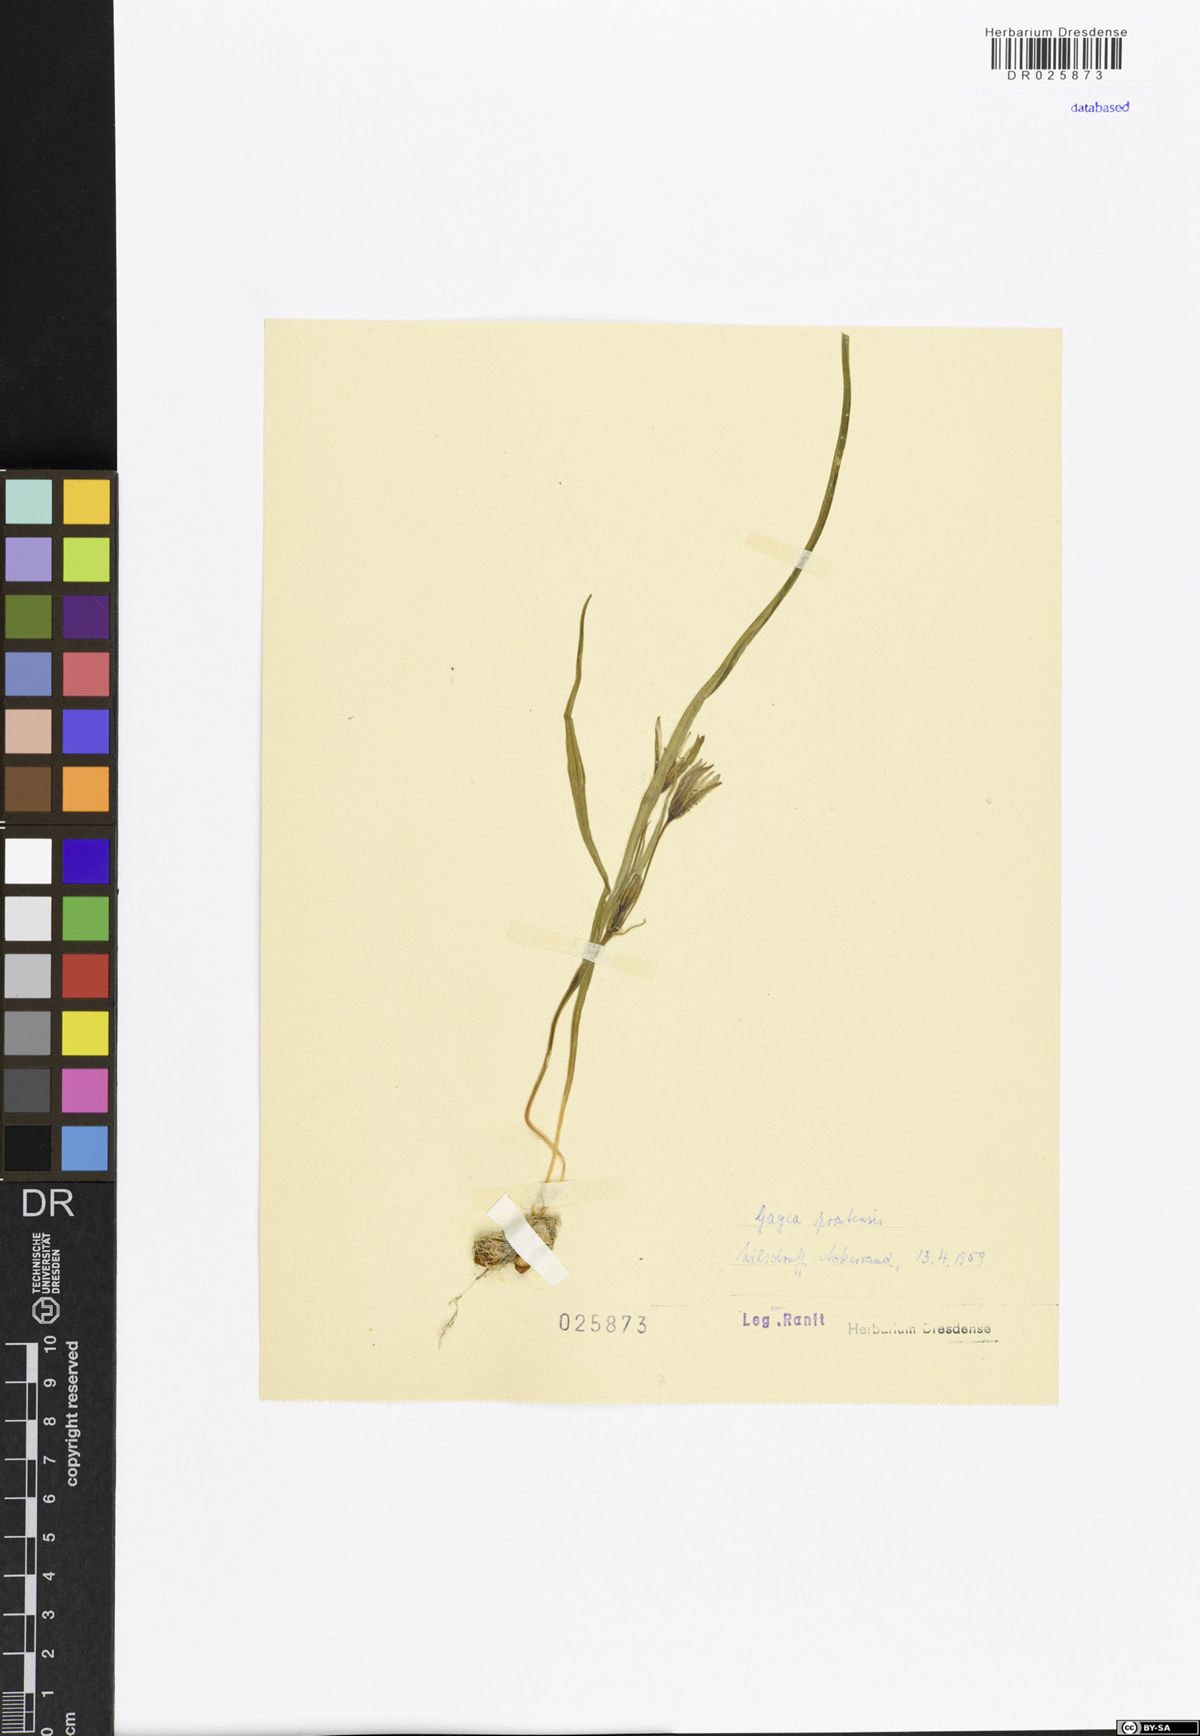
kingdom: Plantae
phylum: Tracheophyta
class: Liliopsida
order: Liliales
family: Liliaceae
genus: Gagea
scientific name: Gagea pratensis
